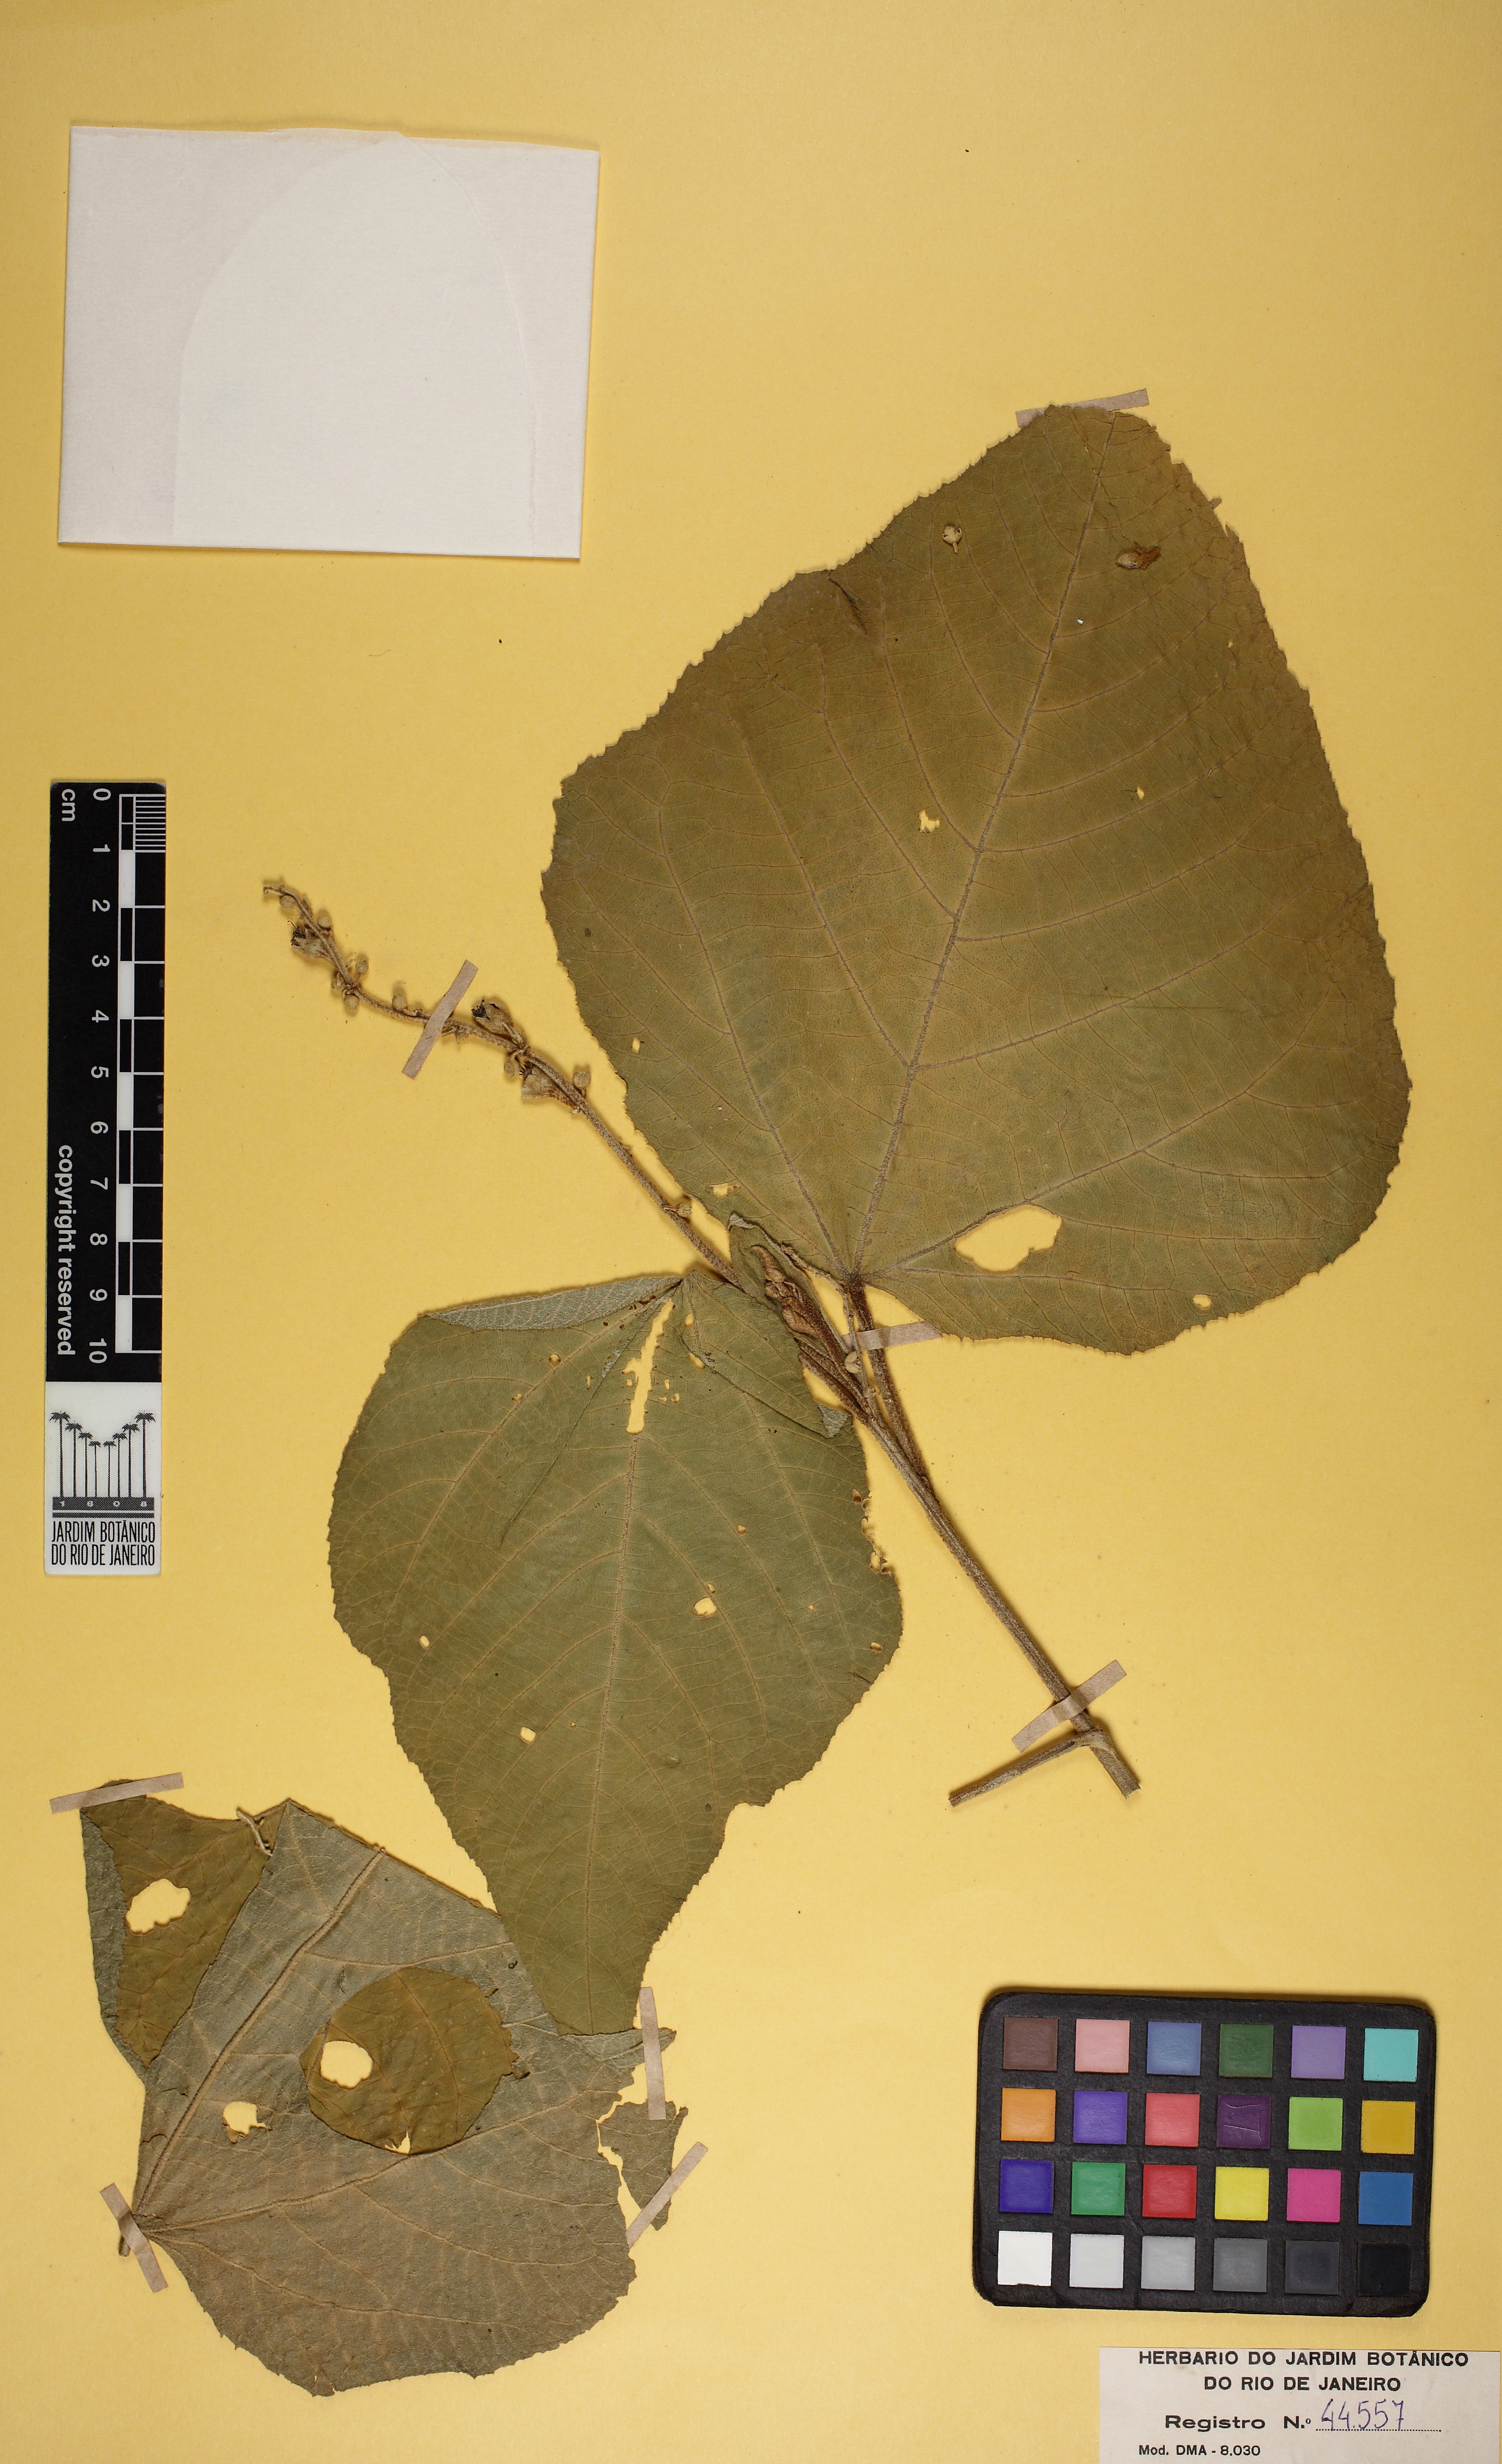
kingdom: Plantae
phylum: Tracheophyta
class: Magnoliopsida
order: Malpighiales
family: Euphorbiaceae
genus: Croton
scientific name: Croton cearensis
